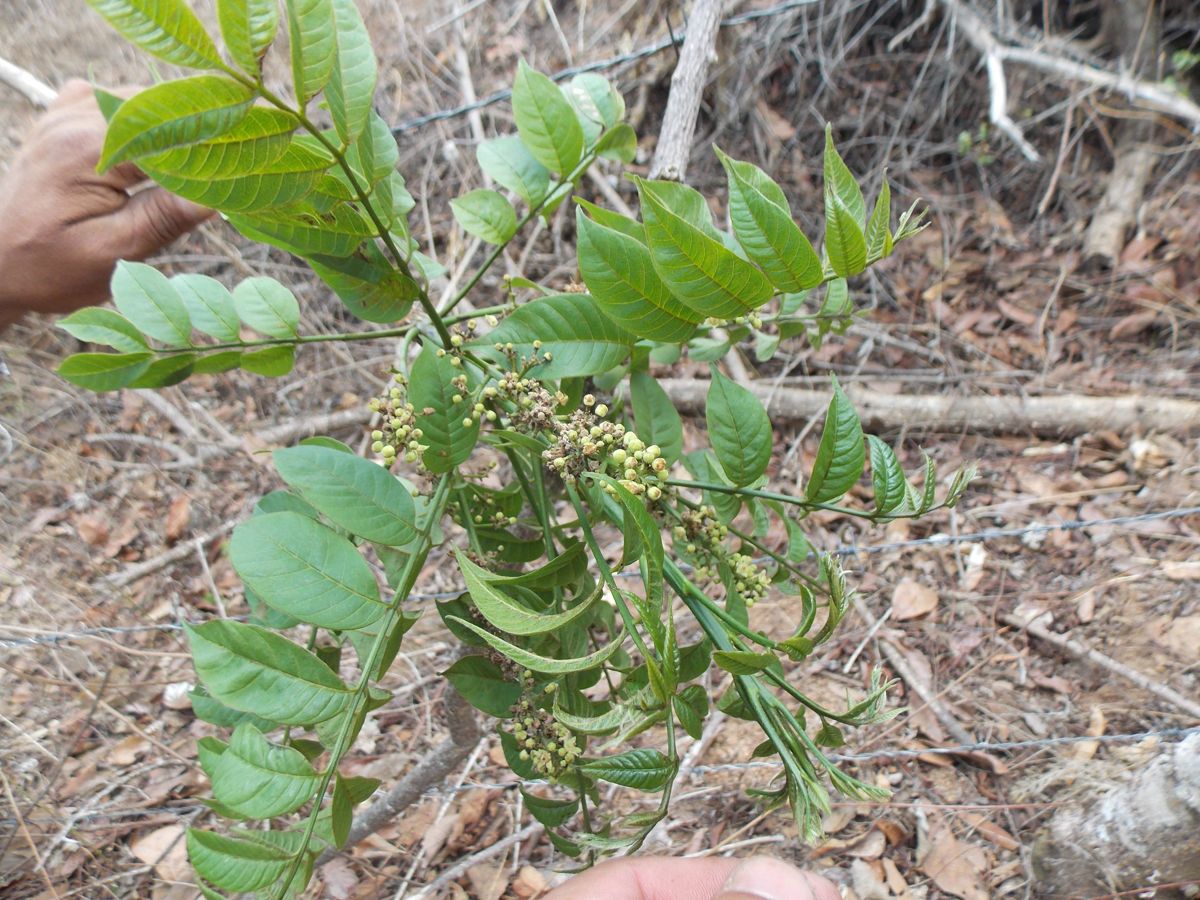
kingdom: Plantae
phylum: Tracheophyta
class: Magnoliopsida
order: Sapindales
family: Rutaceae
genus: Zanthoxylum
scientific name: Zanthoxylum mollissimum
